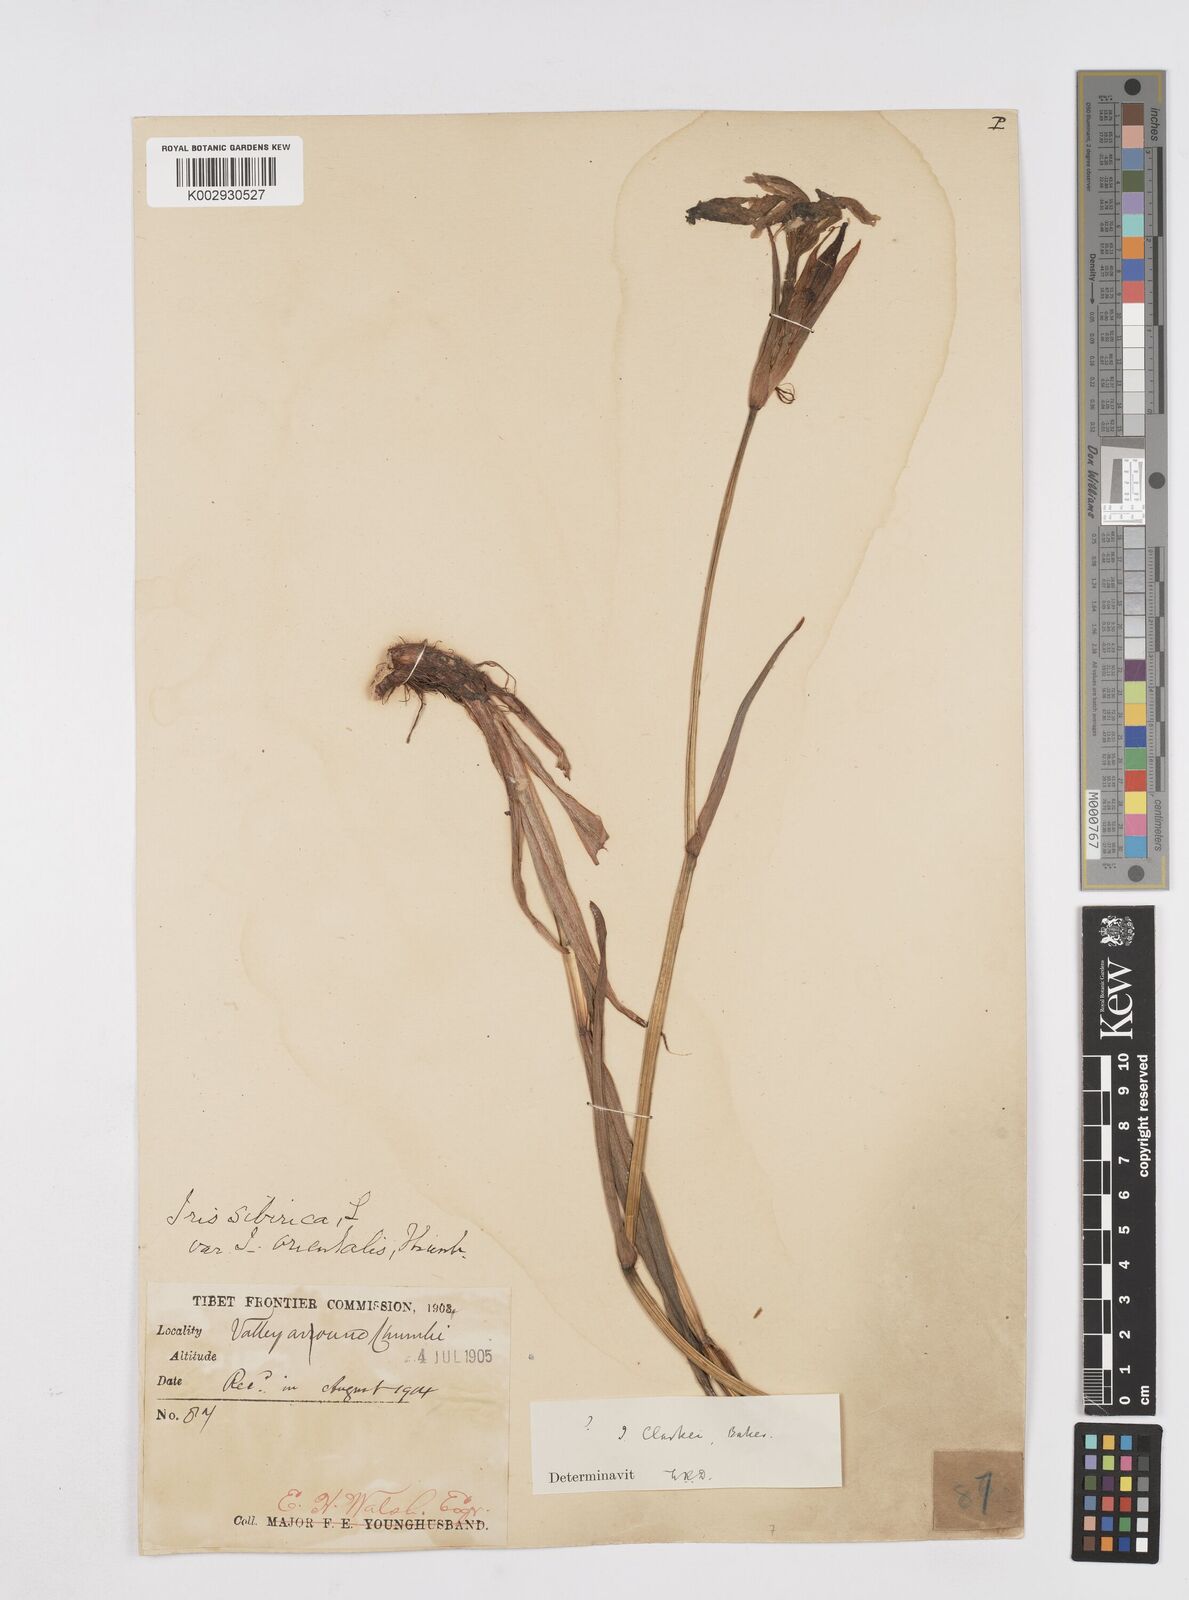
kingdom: Plantae
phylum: Tracheophyta
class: Liliopsida
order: Asparagales
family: Iridaceae
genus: Iris
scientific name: Iris clarkei
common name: Tibet iris
